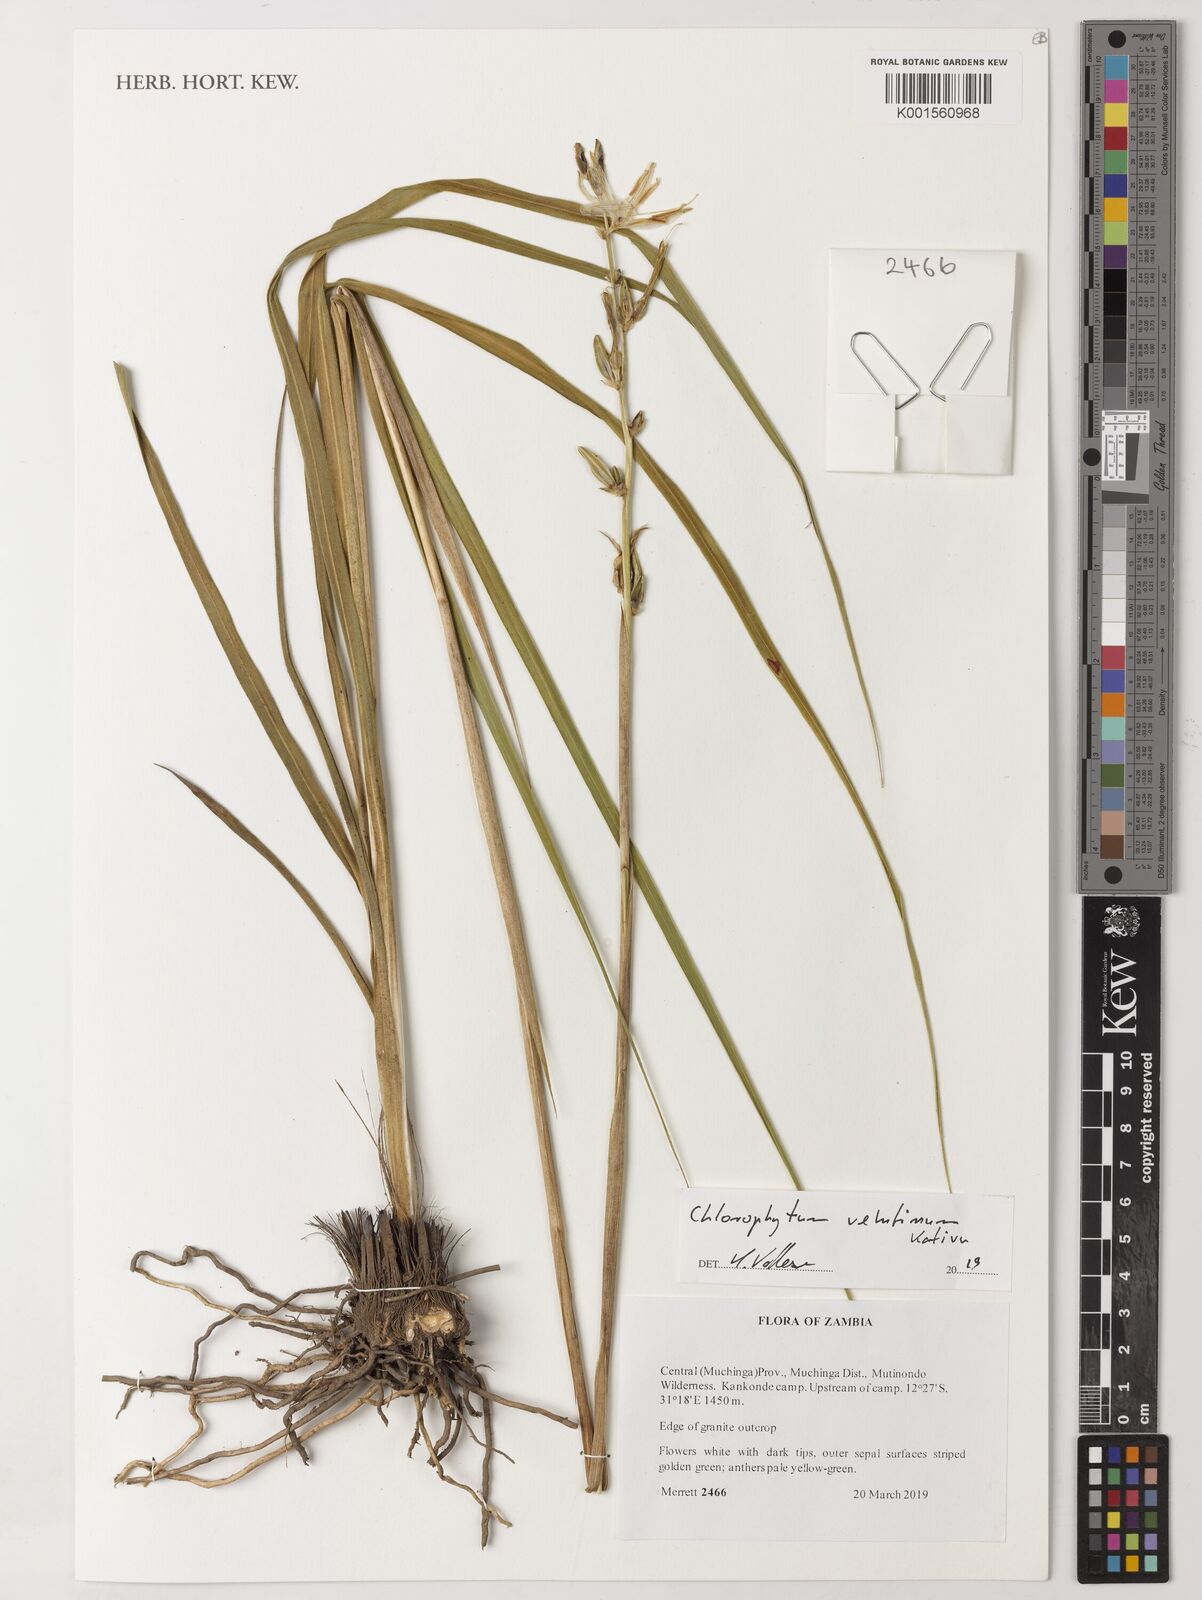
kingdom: Plantae
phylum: Tracheophyta
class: Liliopsida
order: Asparagales
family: Asparagaceae
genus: Chlorophytum
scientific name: Chlorophytum velutinum
